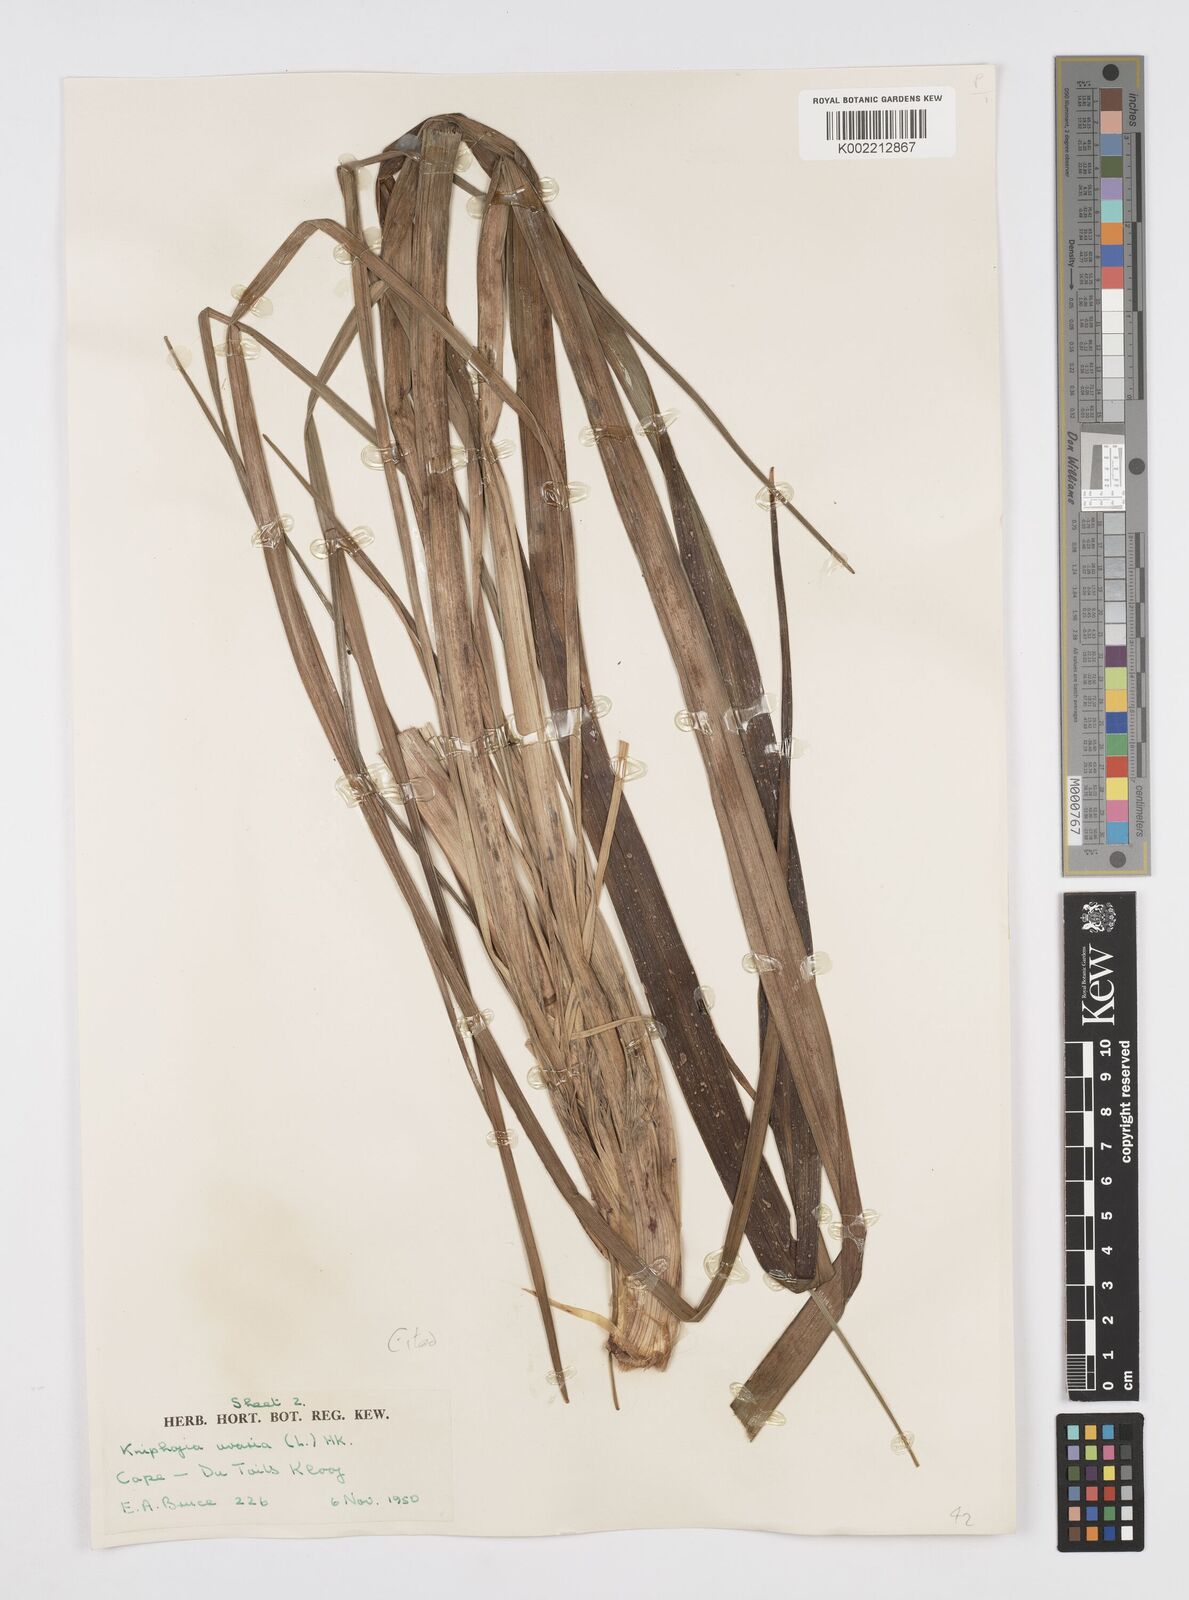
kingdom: Plantae
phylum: Tracheophyta
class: Liliopsida
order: Asparagales
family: Asphodelaceae
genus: Kniphofia
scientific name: Kniphofia uvaria
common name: Red-hot-poker
